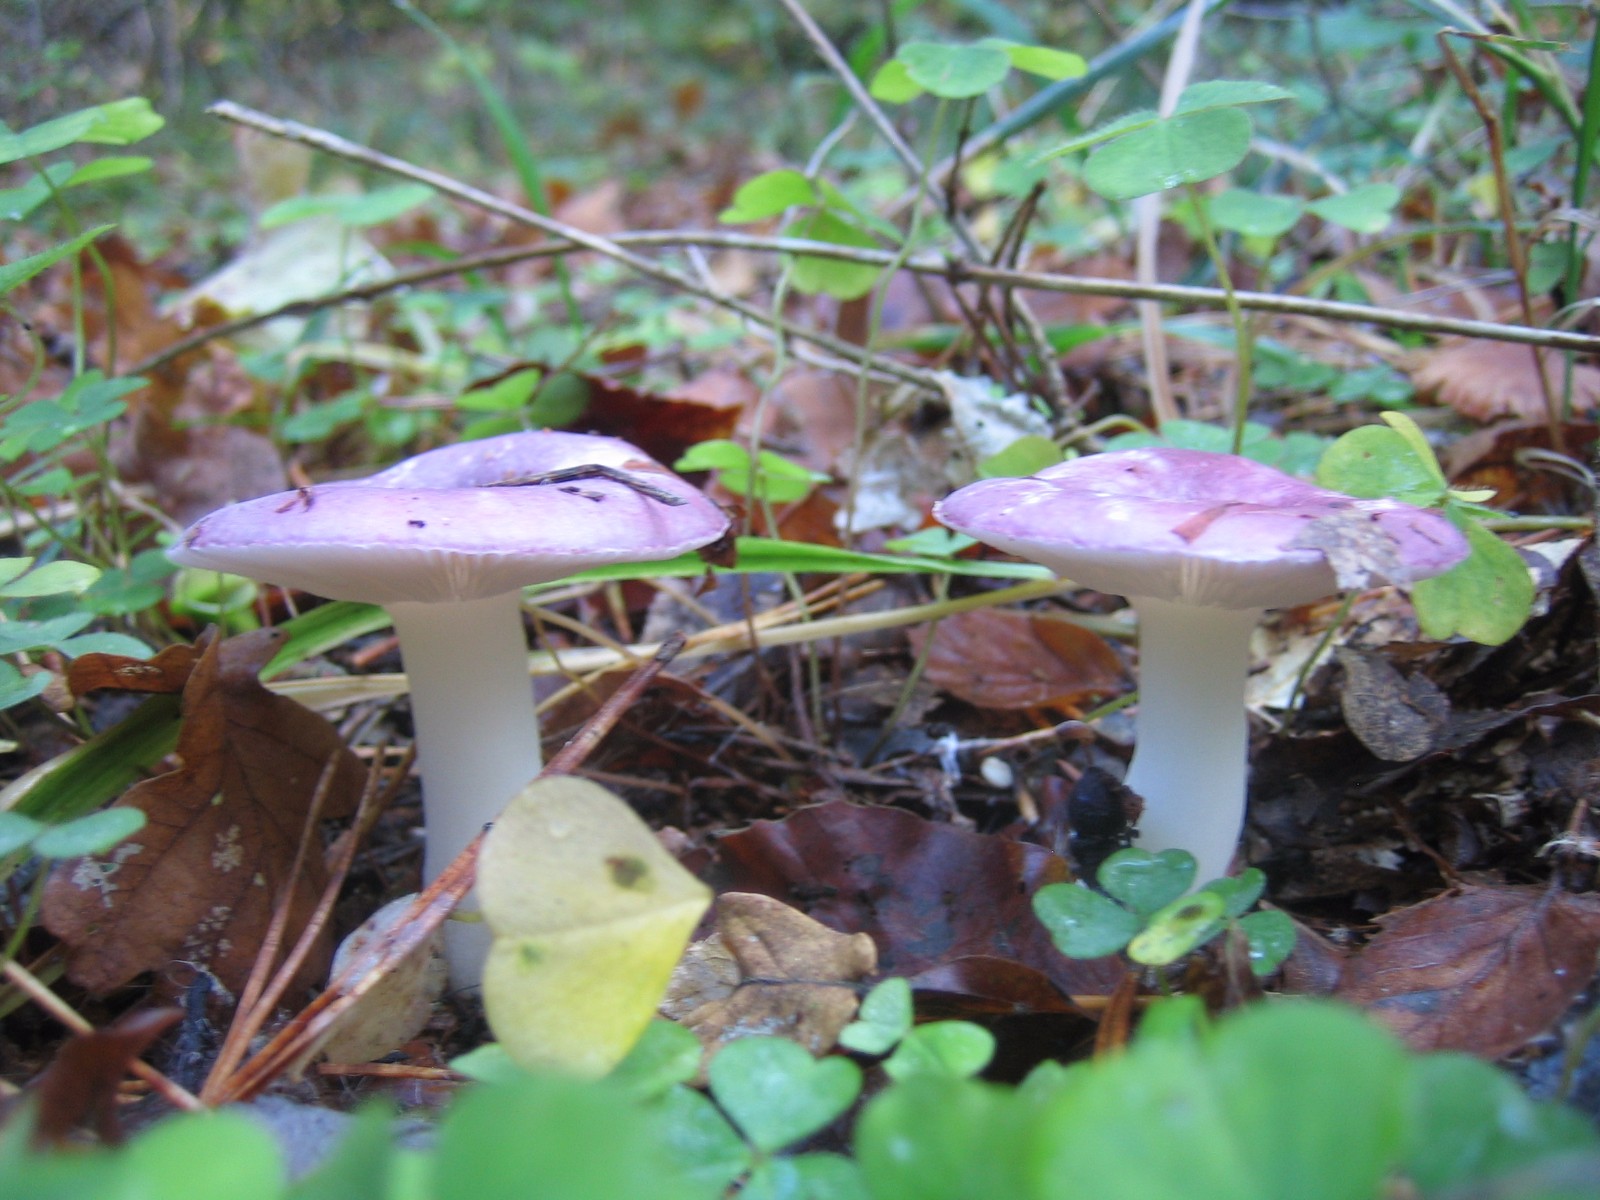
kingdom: Fungi
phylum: Basidiomycota
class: Agaricomycetes
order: Russulales
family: Russulaceae
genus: Russula
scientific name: Russula fragilis
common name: savbladet skørhat
